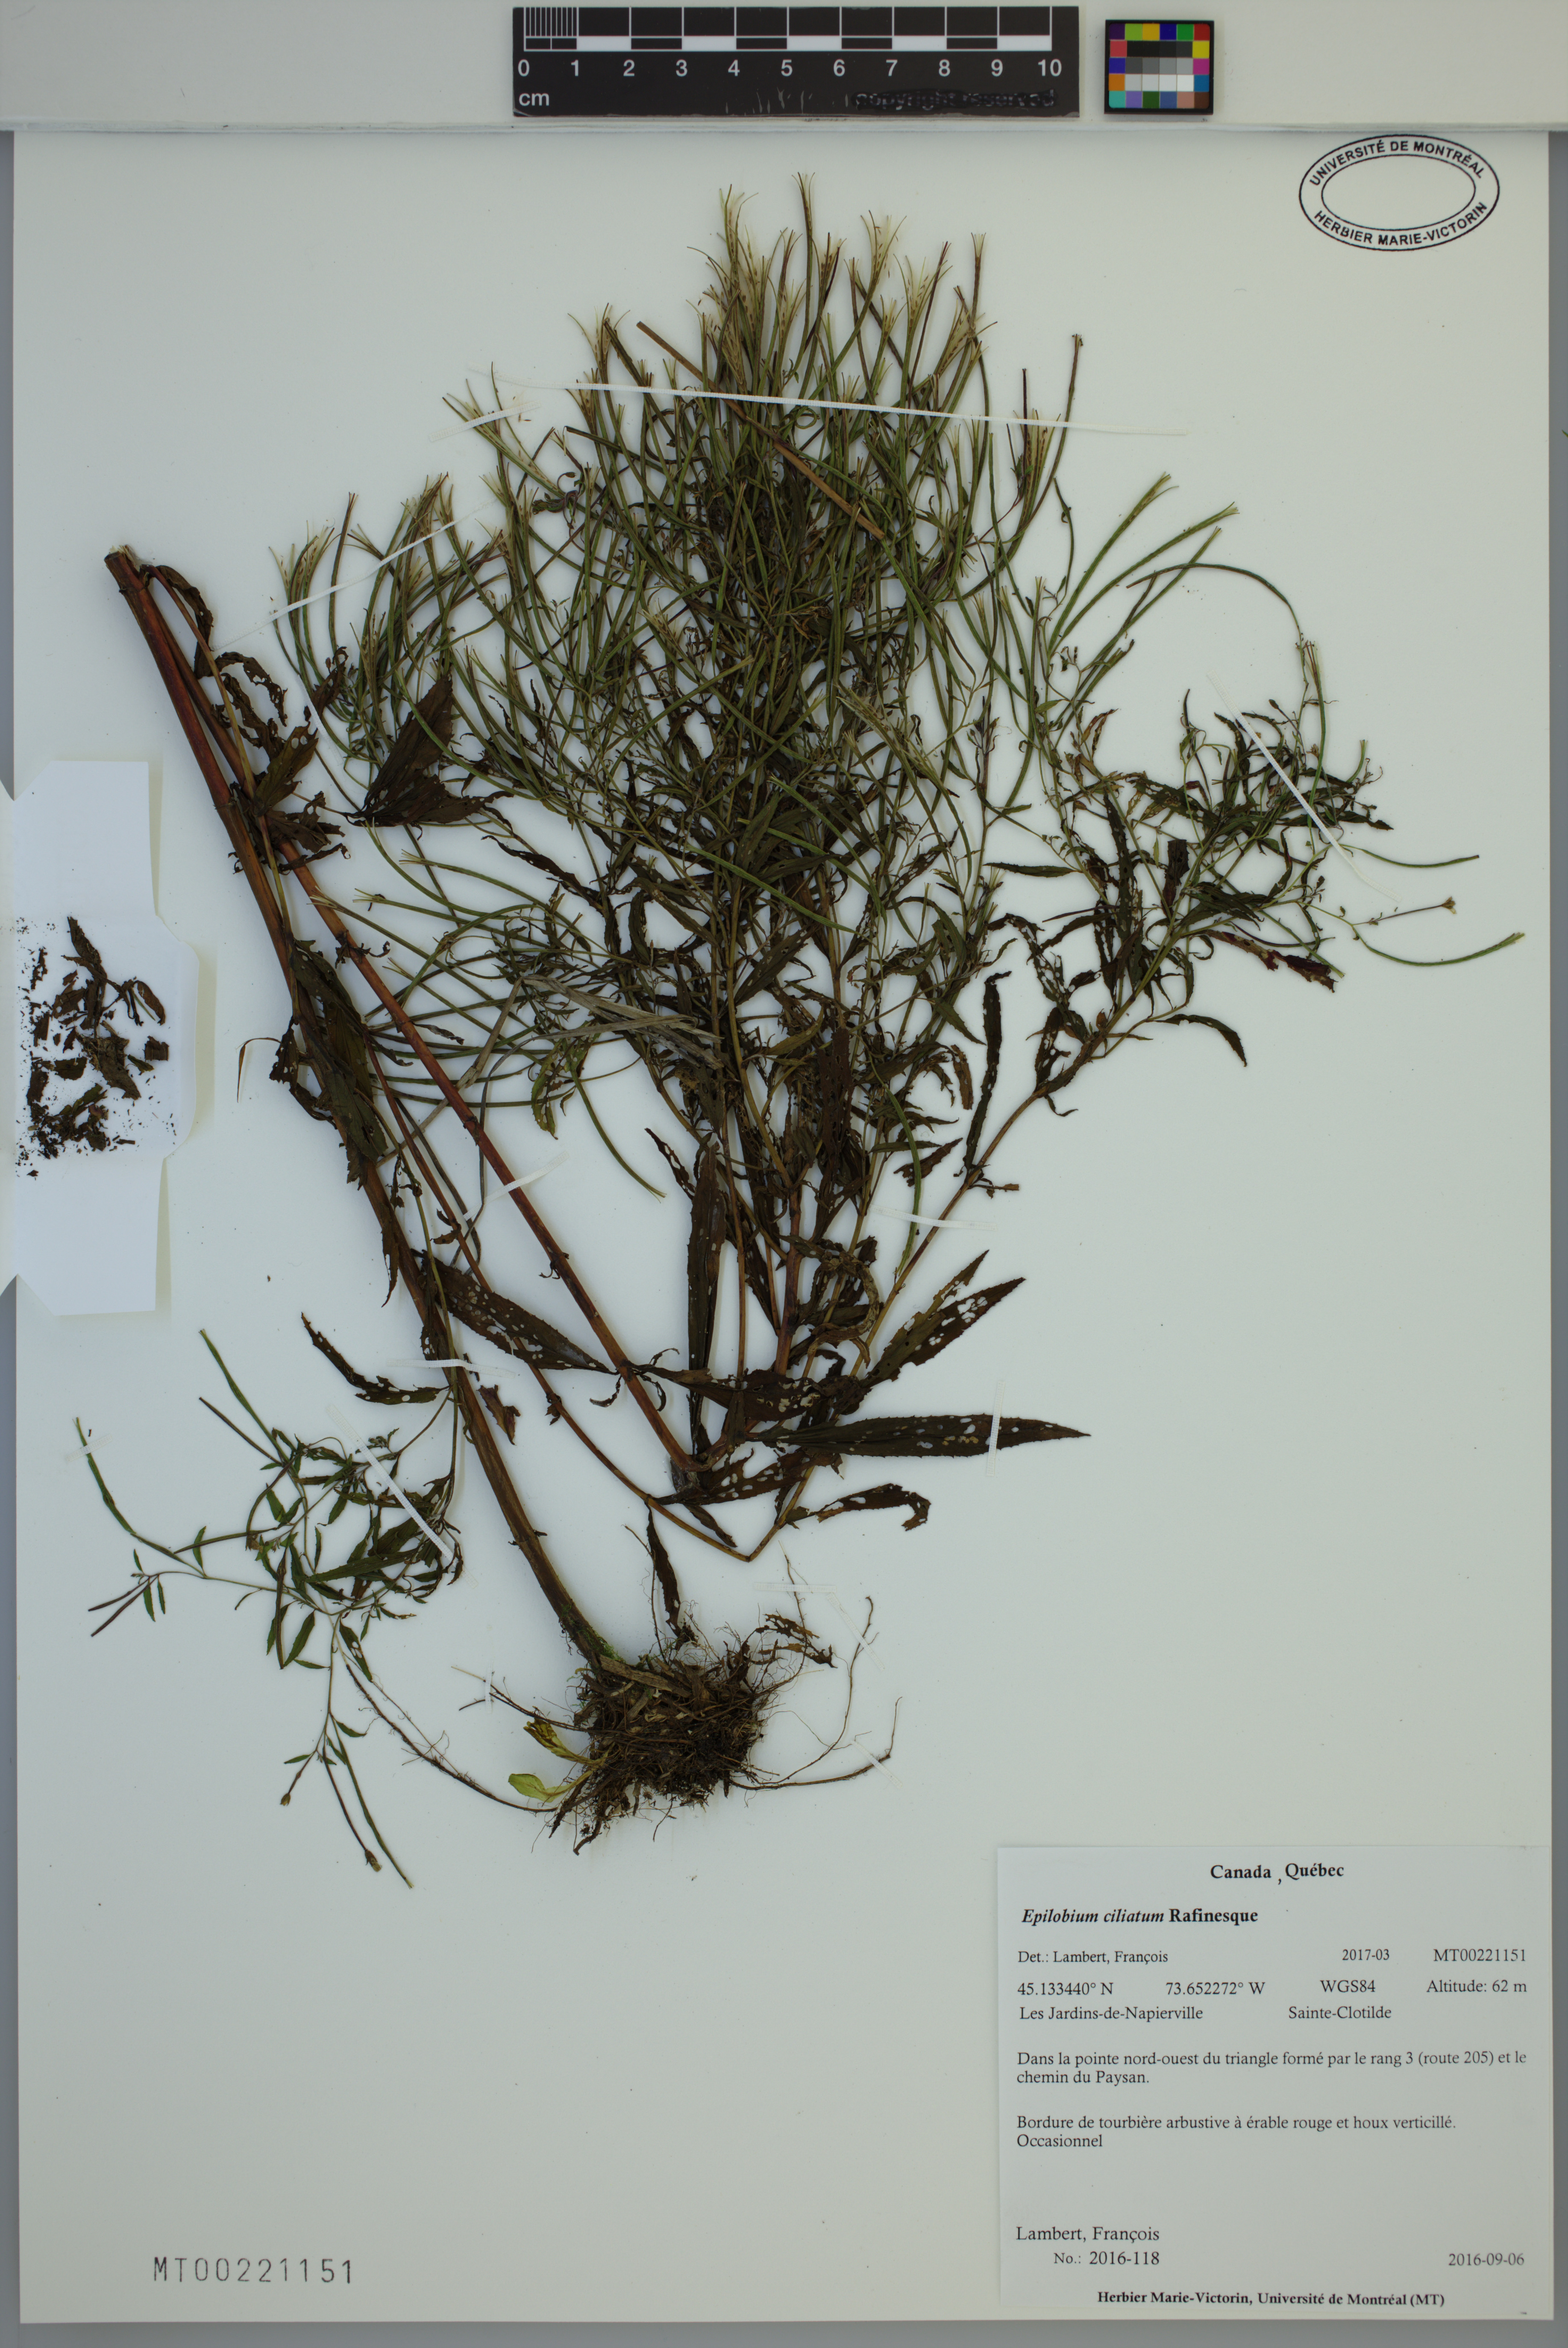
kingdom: Plantae
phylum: Tracheophyta
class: Magnoliopsida
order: Myrtales
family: Onagraceae
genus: Epilobium
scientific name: Epilobium ciliatum
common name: American willowherb
